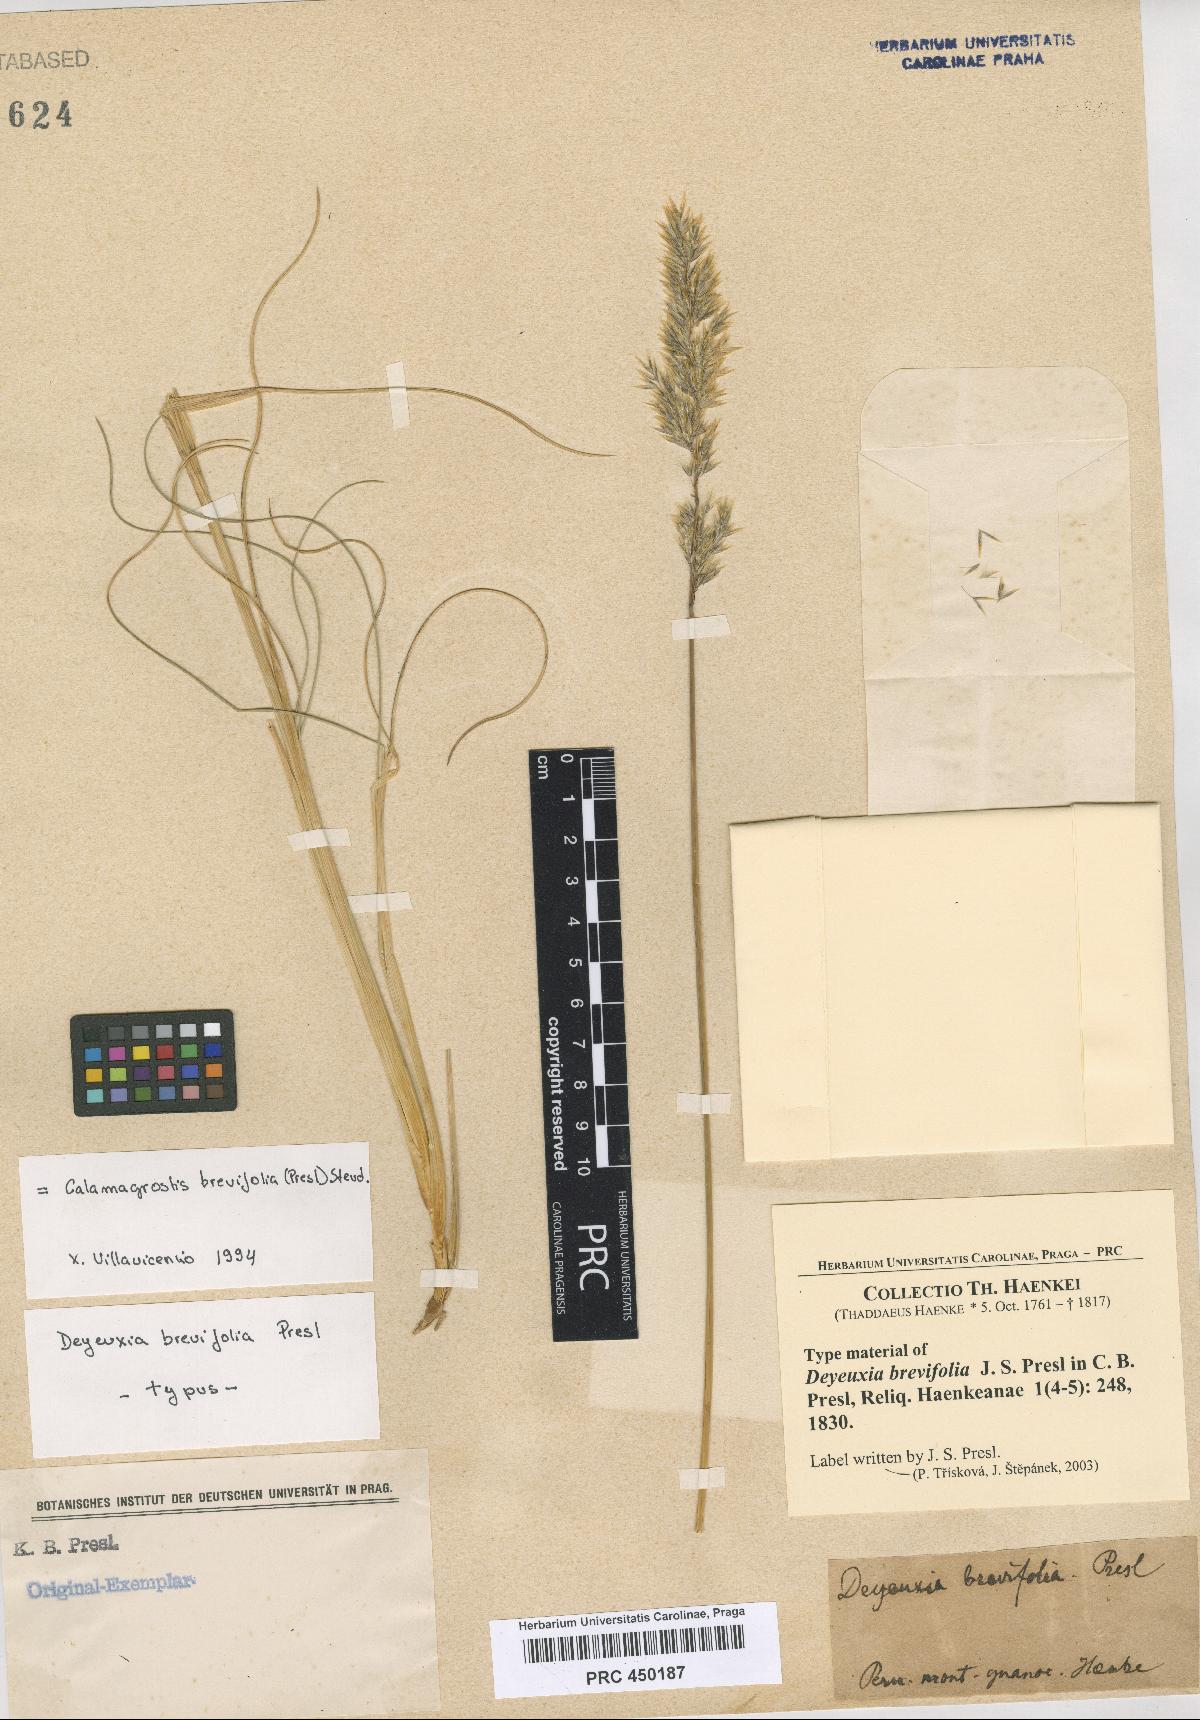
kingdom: Plantae
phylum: Tracheophyta
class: Liliopsida
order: Poales
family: Poaceae
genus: Cinnagrostis
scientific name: Cinnagrostis brevifolia
